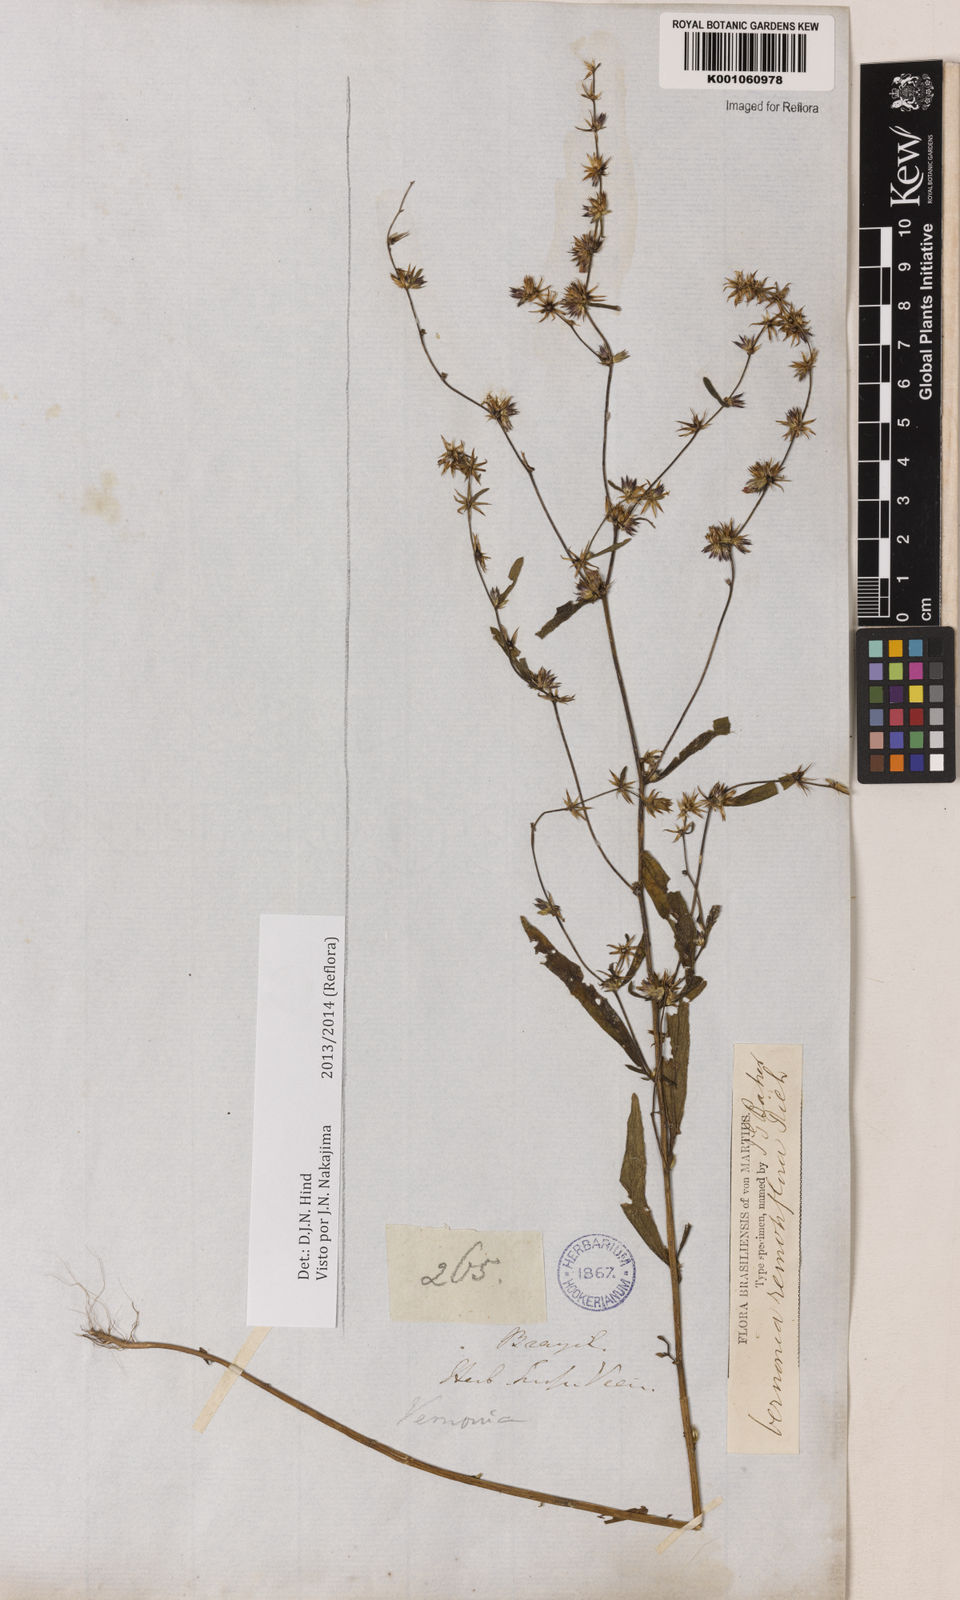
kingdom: Plantae
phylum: Tracheophyta
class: Magnoliopsida
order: Asterales
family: Asteraceae
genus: Lepidaploa
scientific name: Lepidaploa remotiflora
